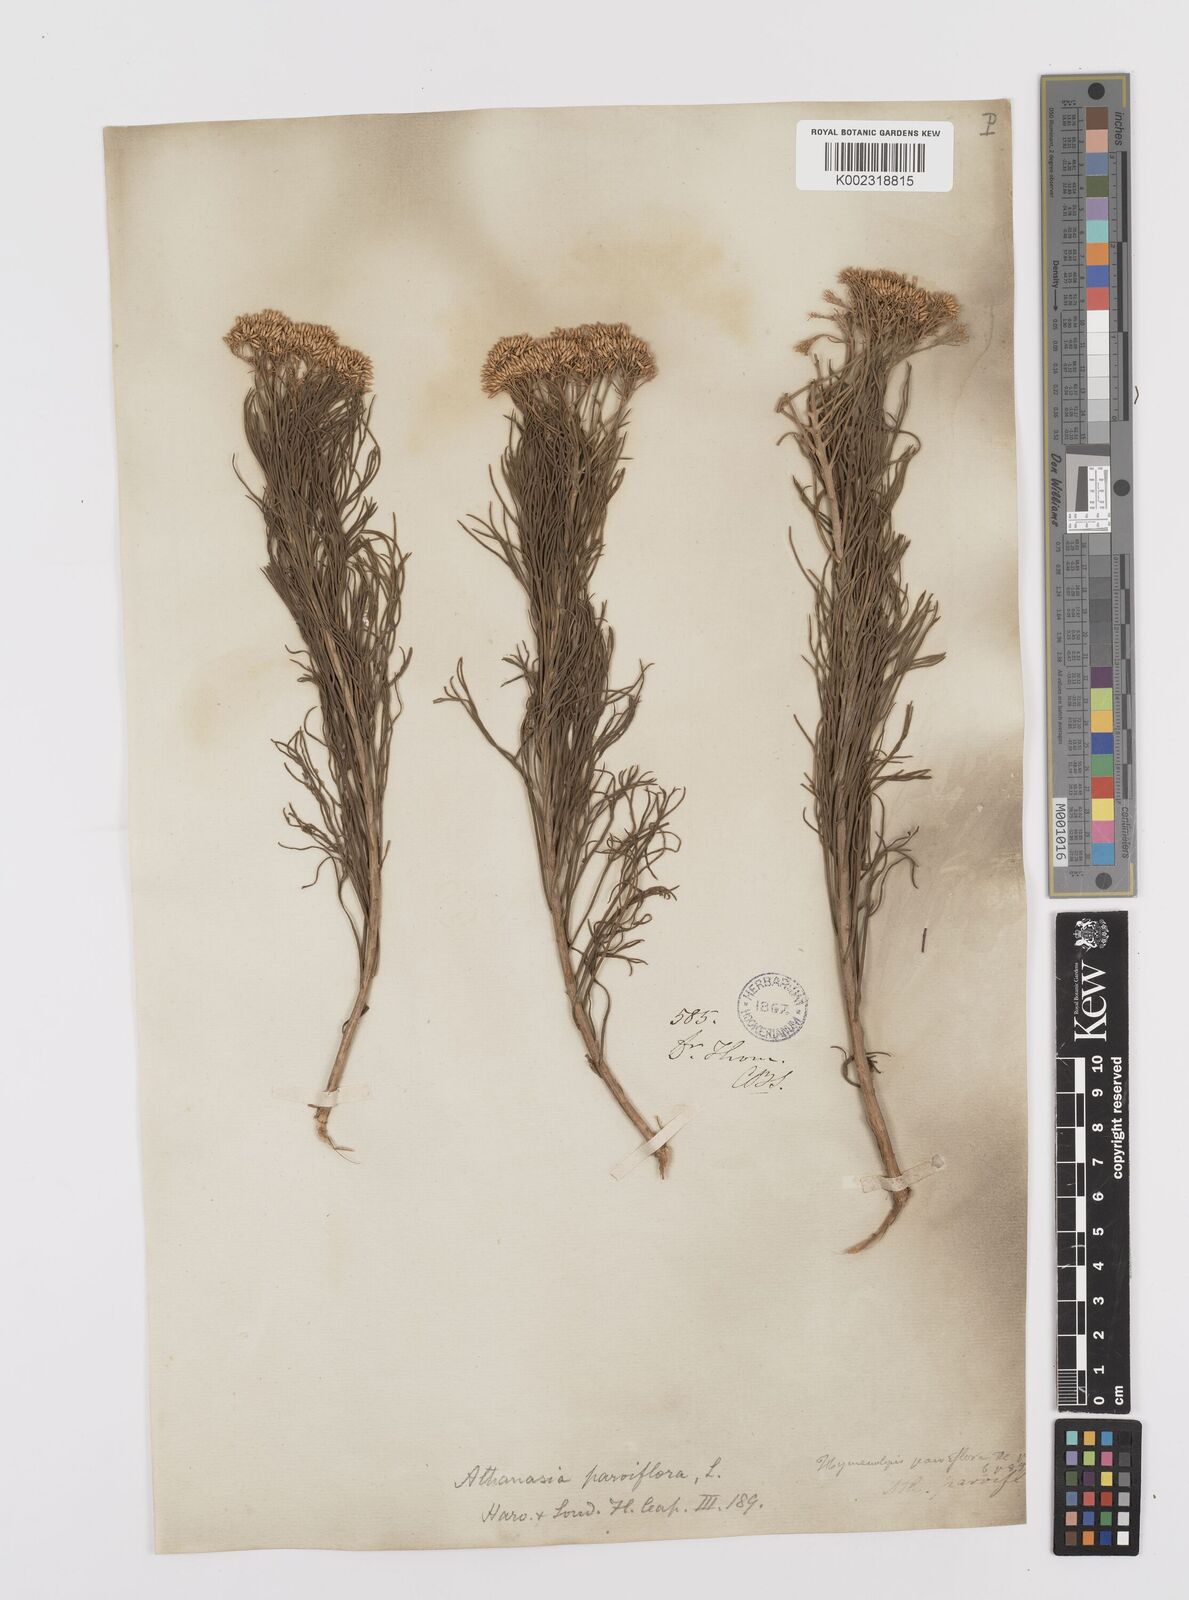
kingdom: Plantae
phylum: Tracheophyta
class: Magnoliopsida
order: Asterales
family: Asteraceae
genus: Hymenolepis
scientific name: Hymenolepis crithmifolia
